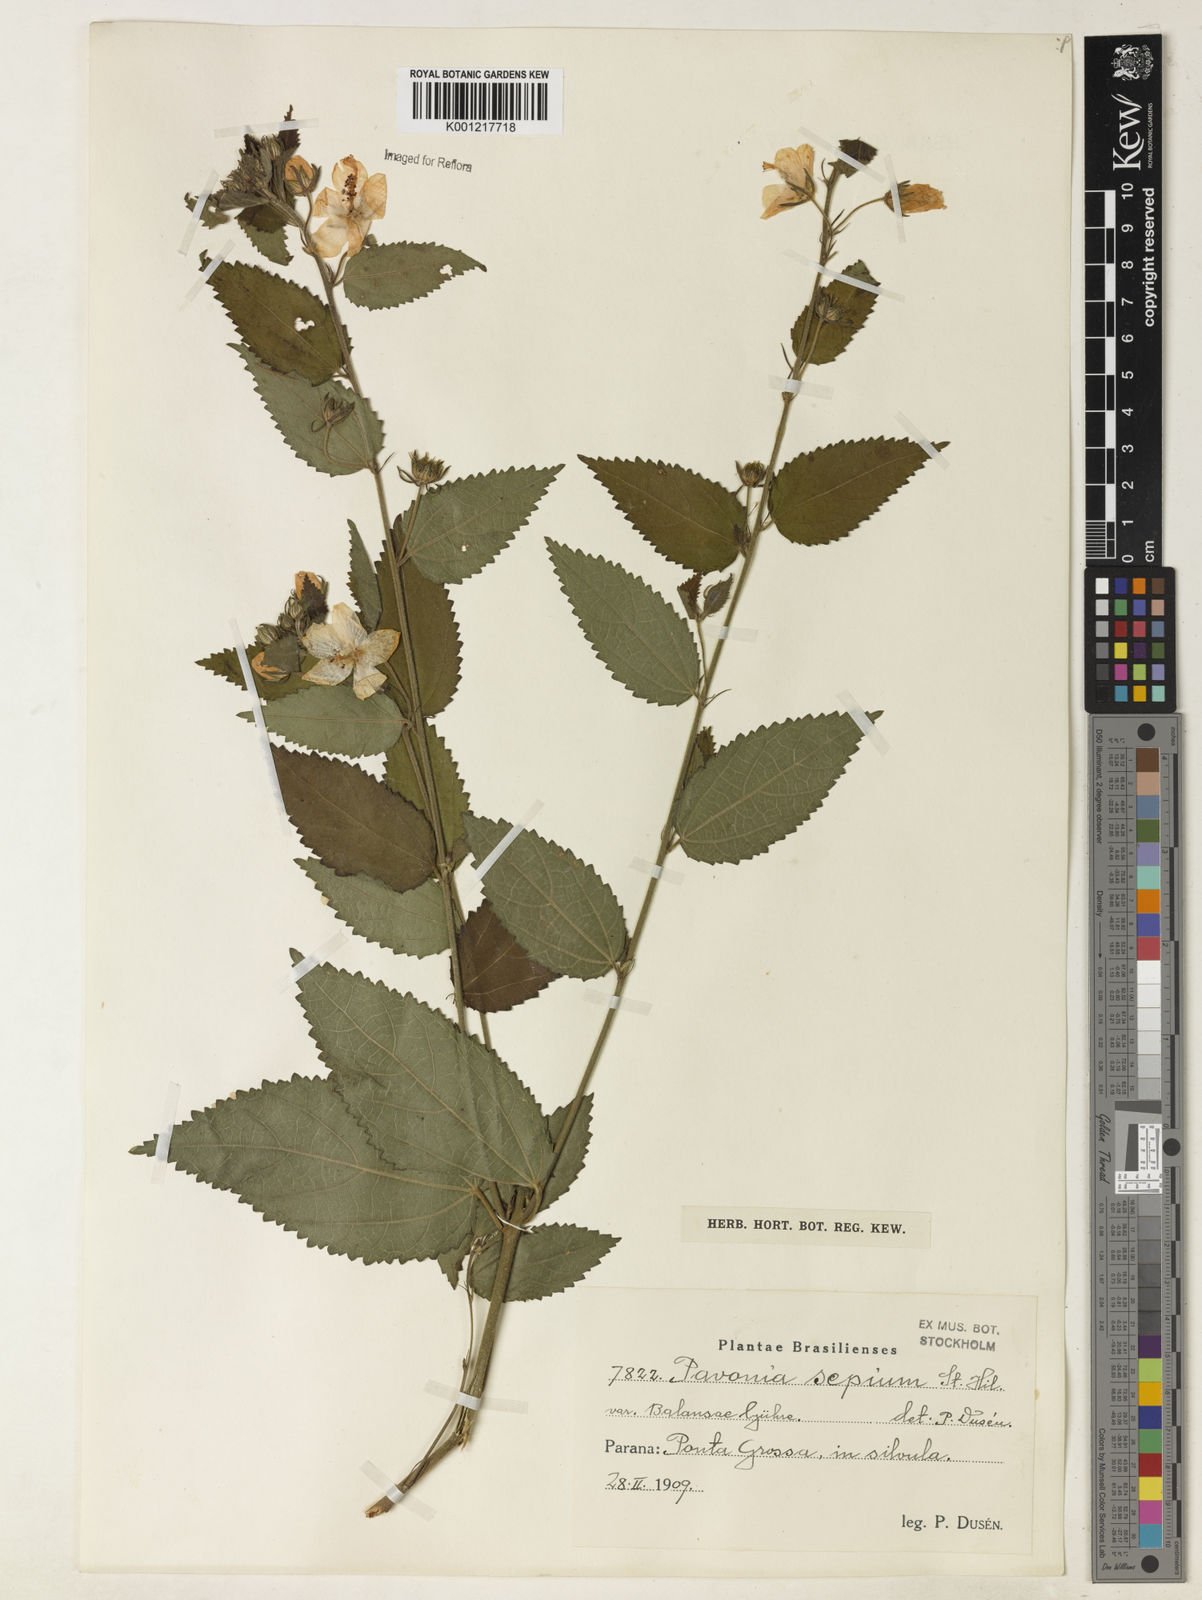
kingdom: Plantae
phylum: Tracheophyta
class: Magnoliopsida
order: Malvales
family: Malvaceae
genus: Pavonia
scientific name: Pavonia sepium
